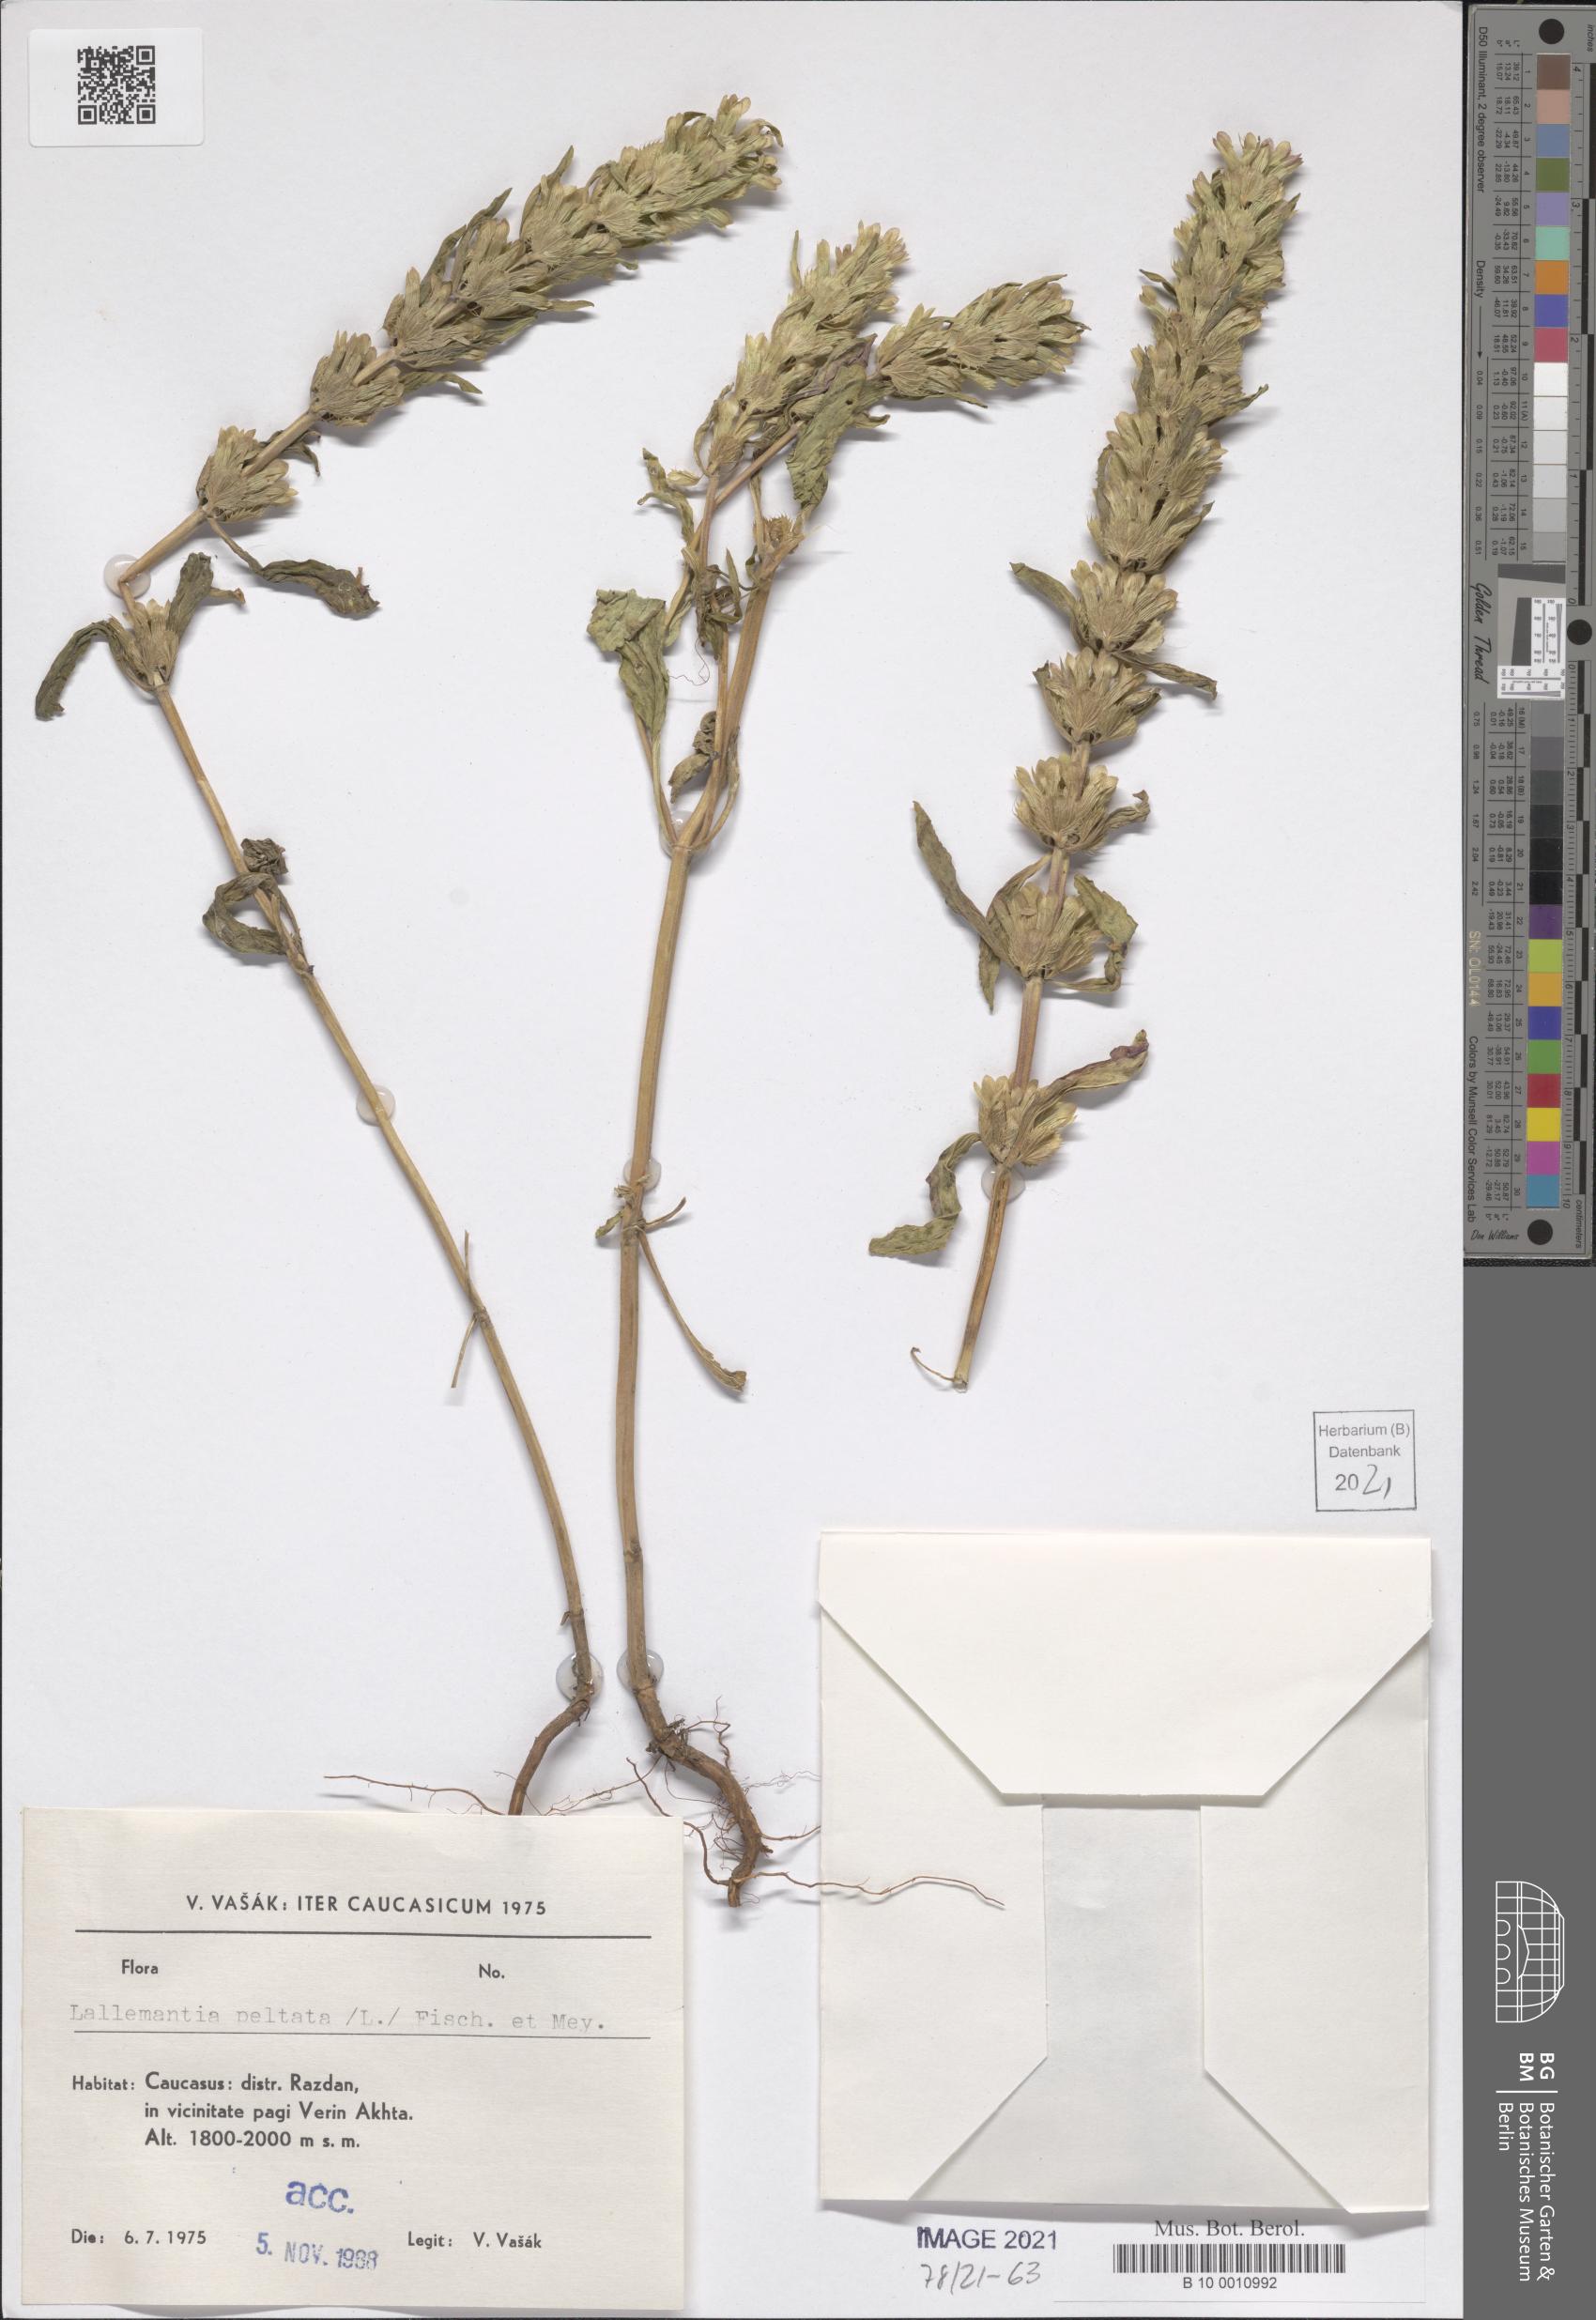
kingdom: Plantae
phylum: Tracheophyta
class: Magnoliopsida
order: Lamiales
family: Lamiaceae
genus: Lallemantia
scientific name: Lallemantia peltata
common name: Lion's heart
